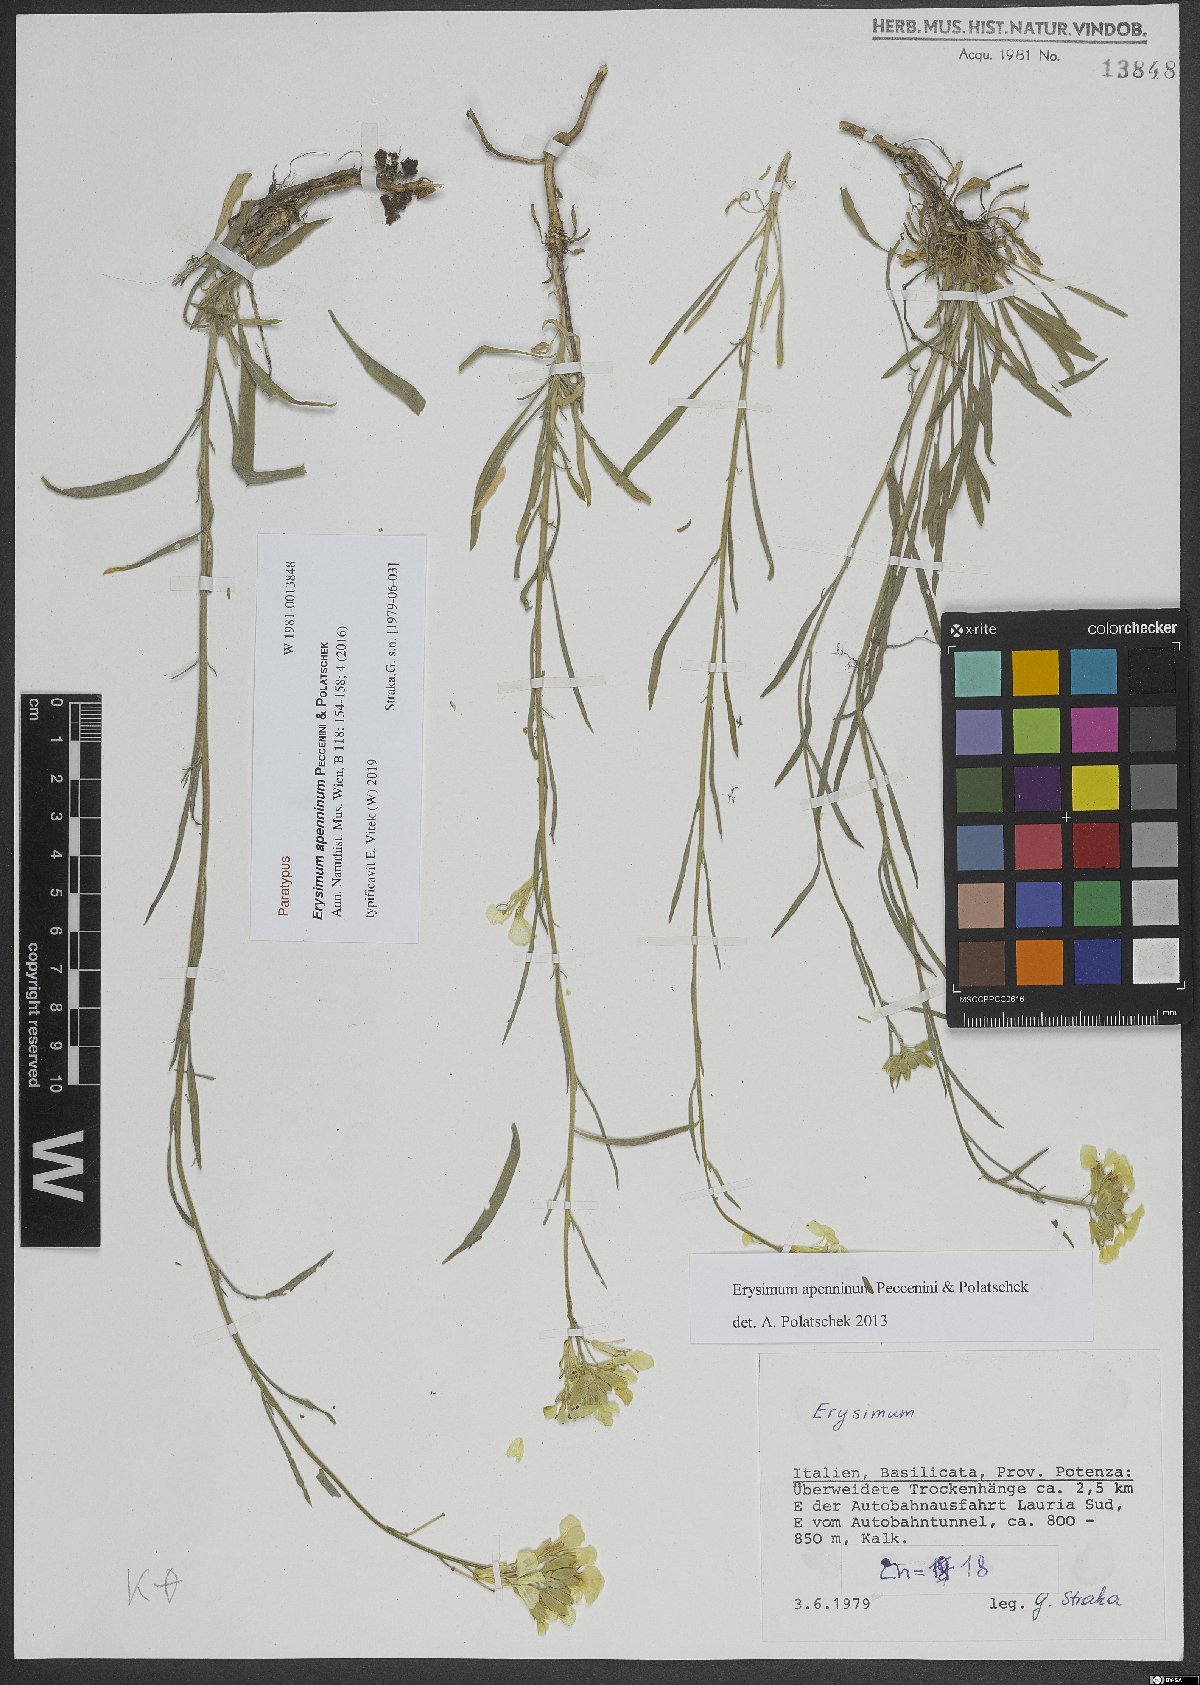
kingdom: Plantae
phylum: Tracheophyta
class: Magnoliopsida
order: Brassicales
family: Brassicaceae
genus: Erysimum
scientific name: Erysimum apenninum
